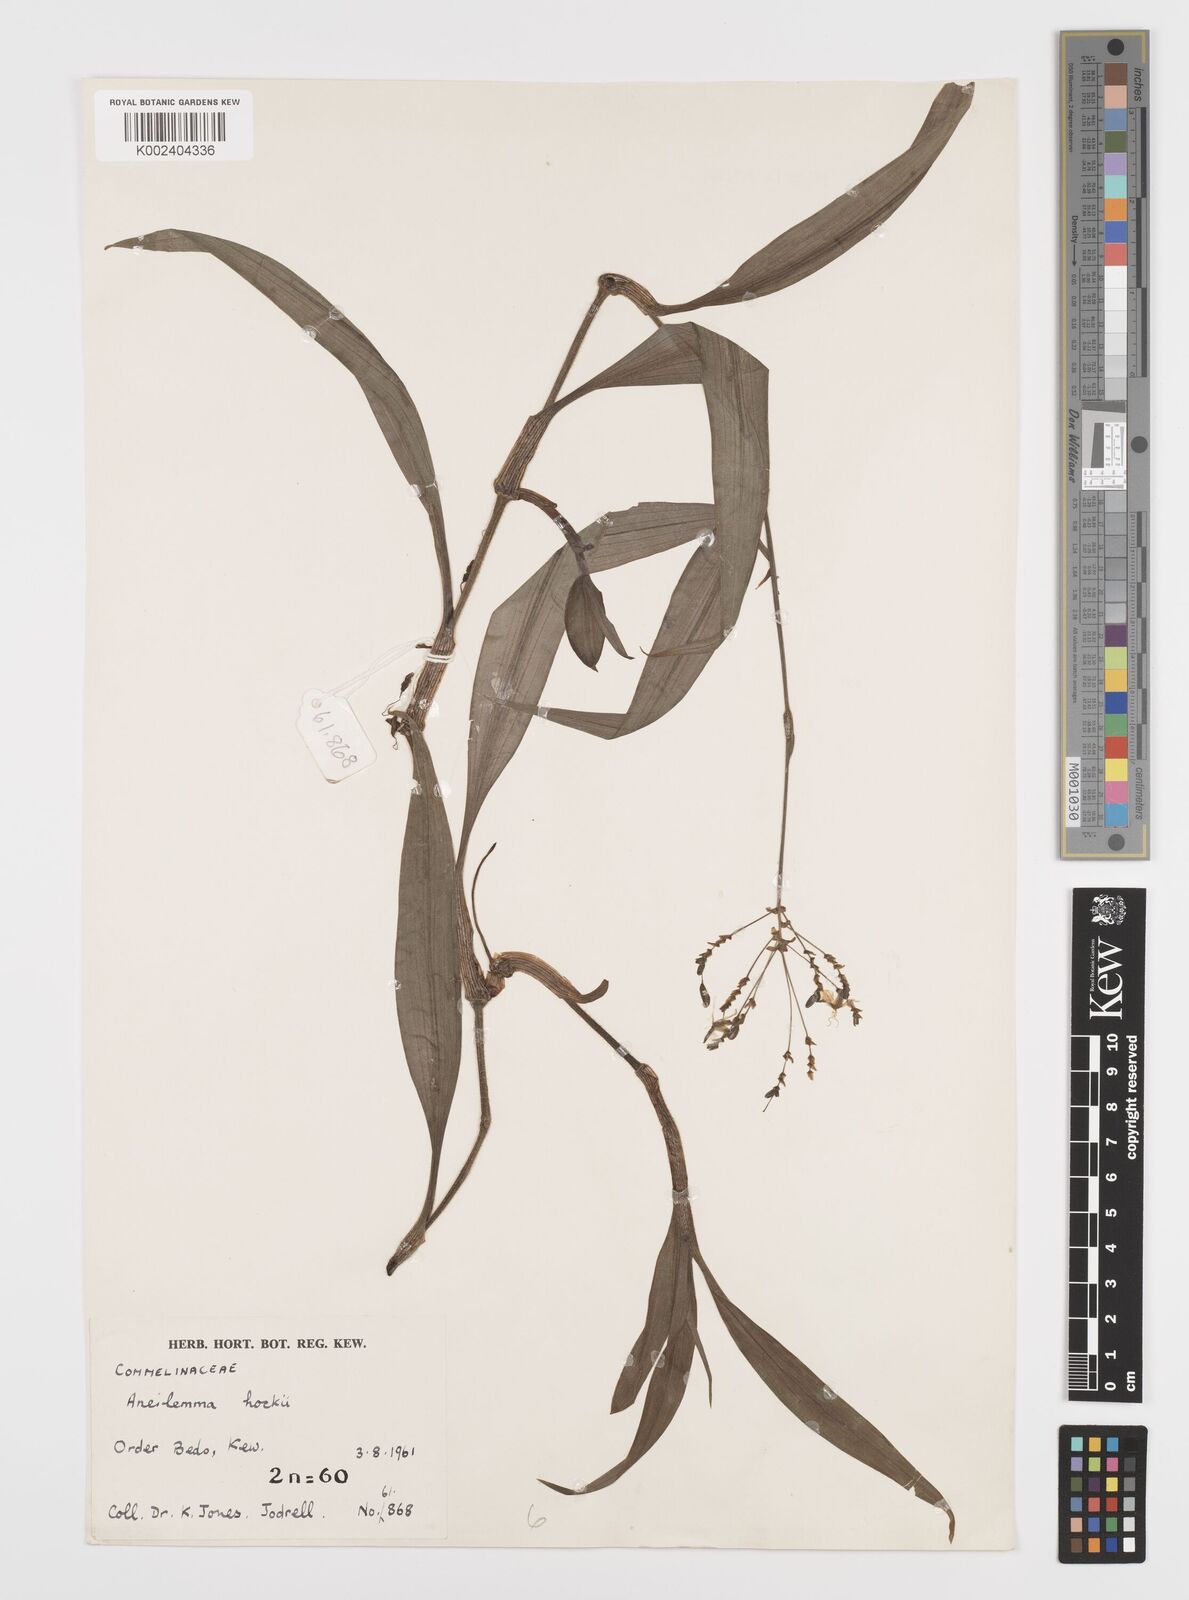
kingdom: Plantae
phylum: Tracheophyta
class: Liliopsida
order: Commelinales
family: Commelinaceae
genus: Aneilema
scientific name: Aneilema hockii
